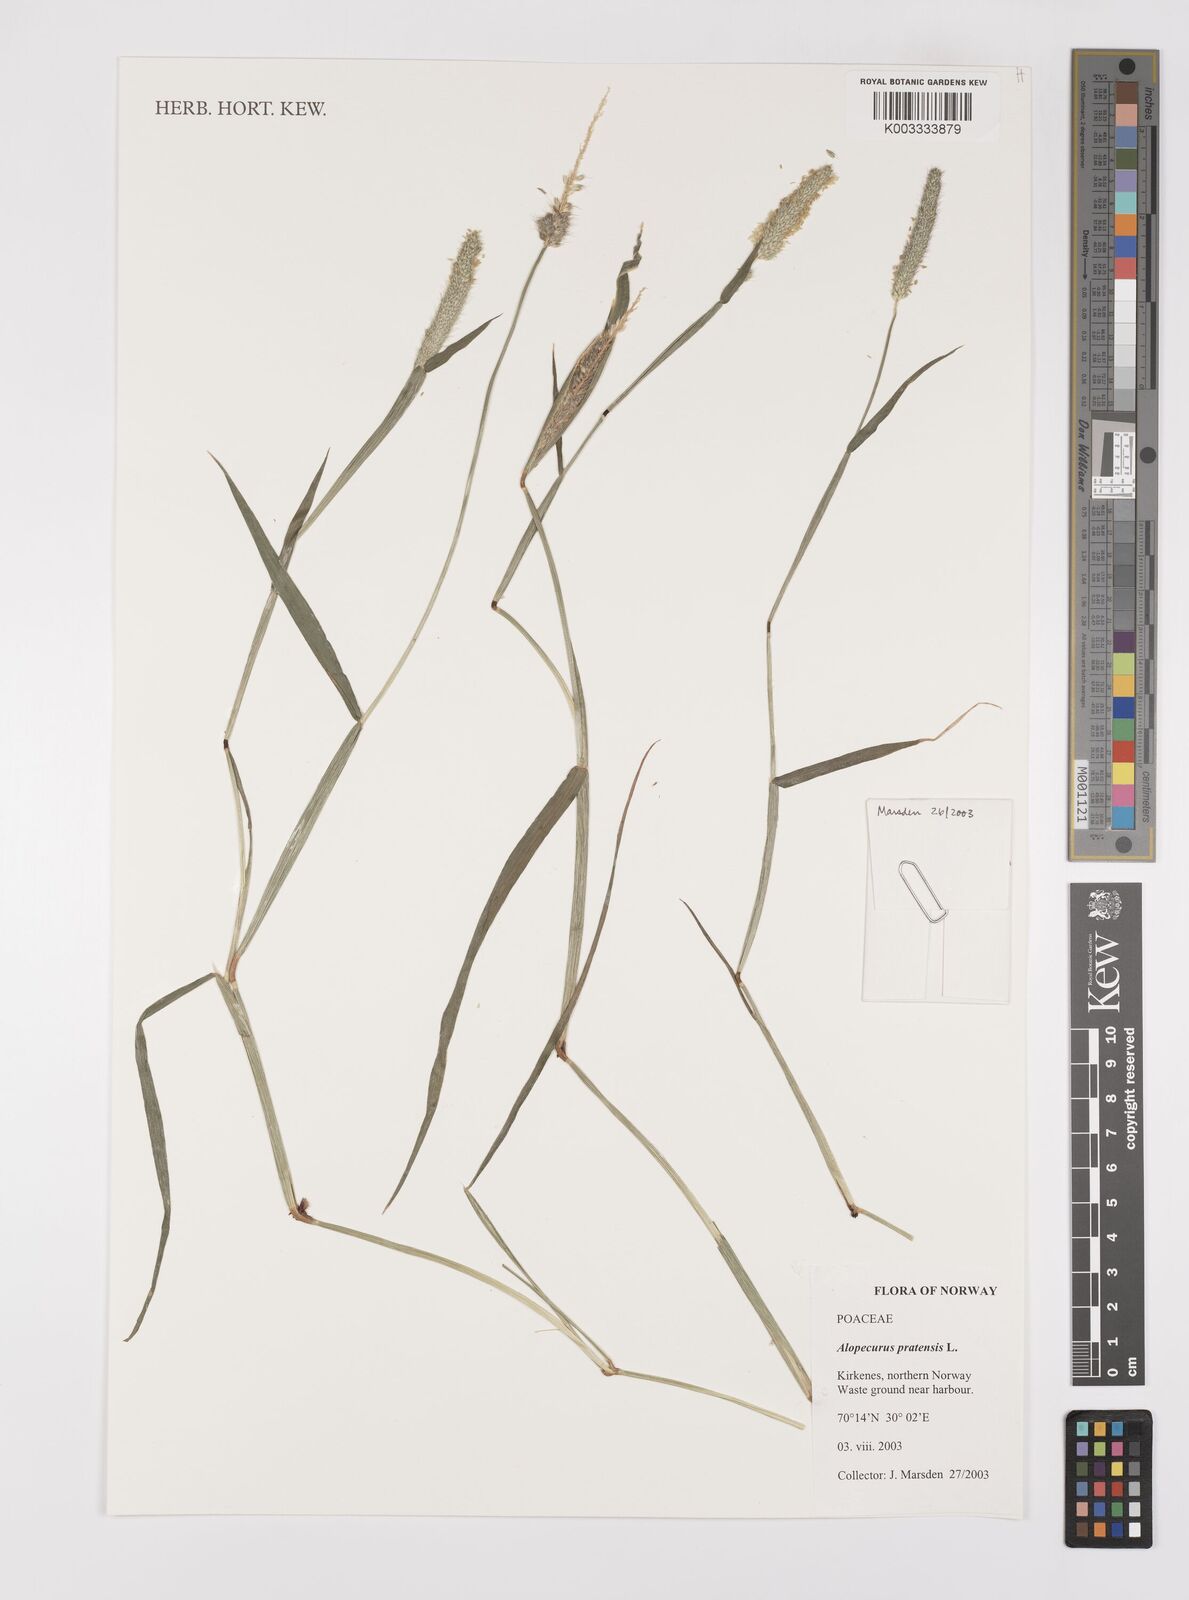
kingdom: Plantae
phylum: Tracheophyta
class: Liliopsida
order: Poales
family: Poaceae
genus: Alopecurus
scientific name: Alopecurus pratensis
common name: Meadow foxtail
